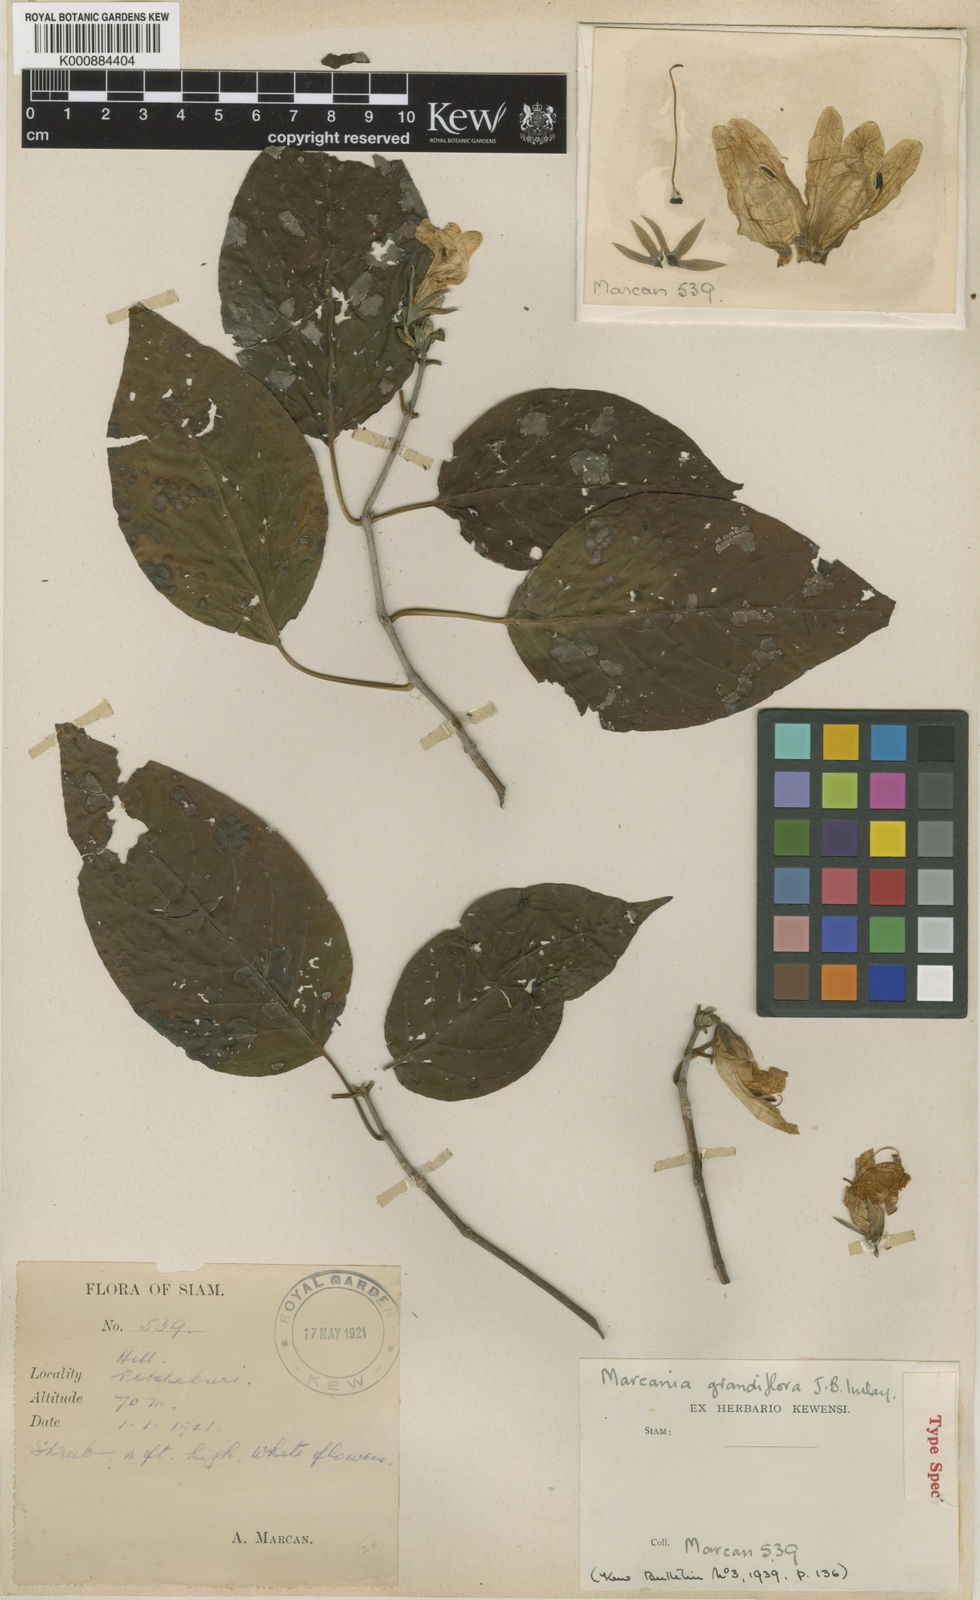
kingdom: Plantae
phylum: Tracheophyta
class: Magnoliopsida
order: Lamiales
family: Acanthaceae
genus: Marcania
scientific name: Marcania grandiflora
